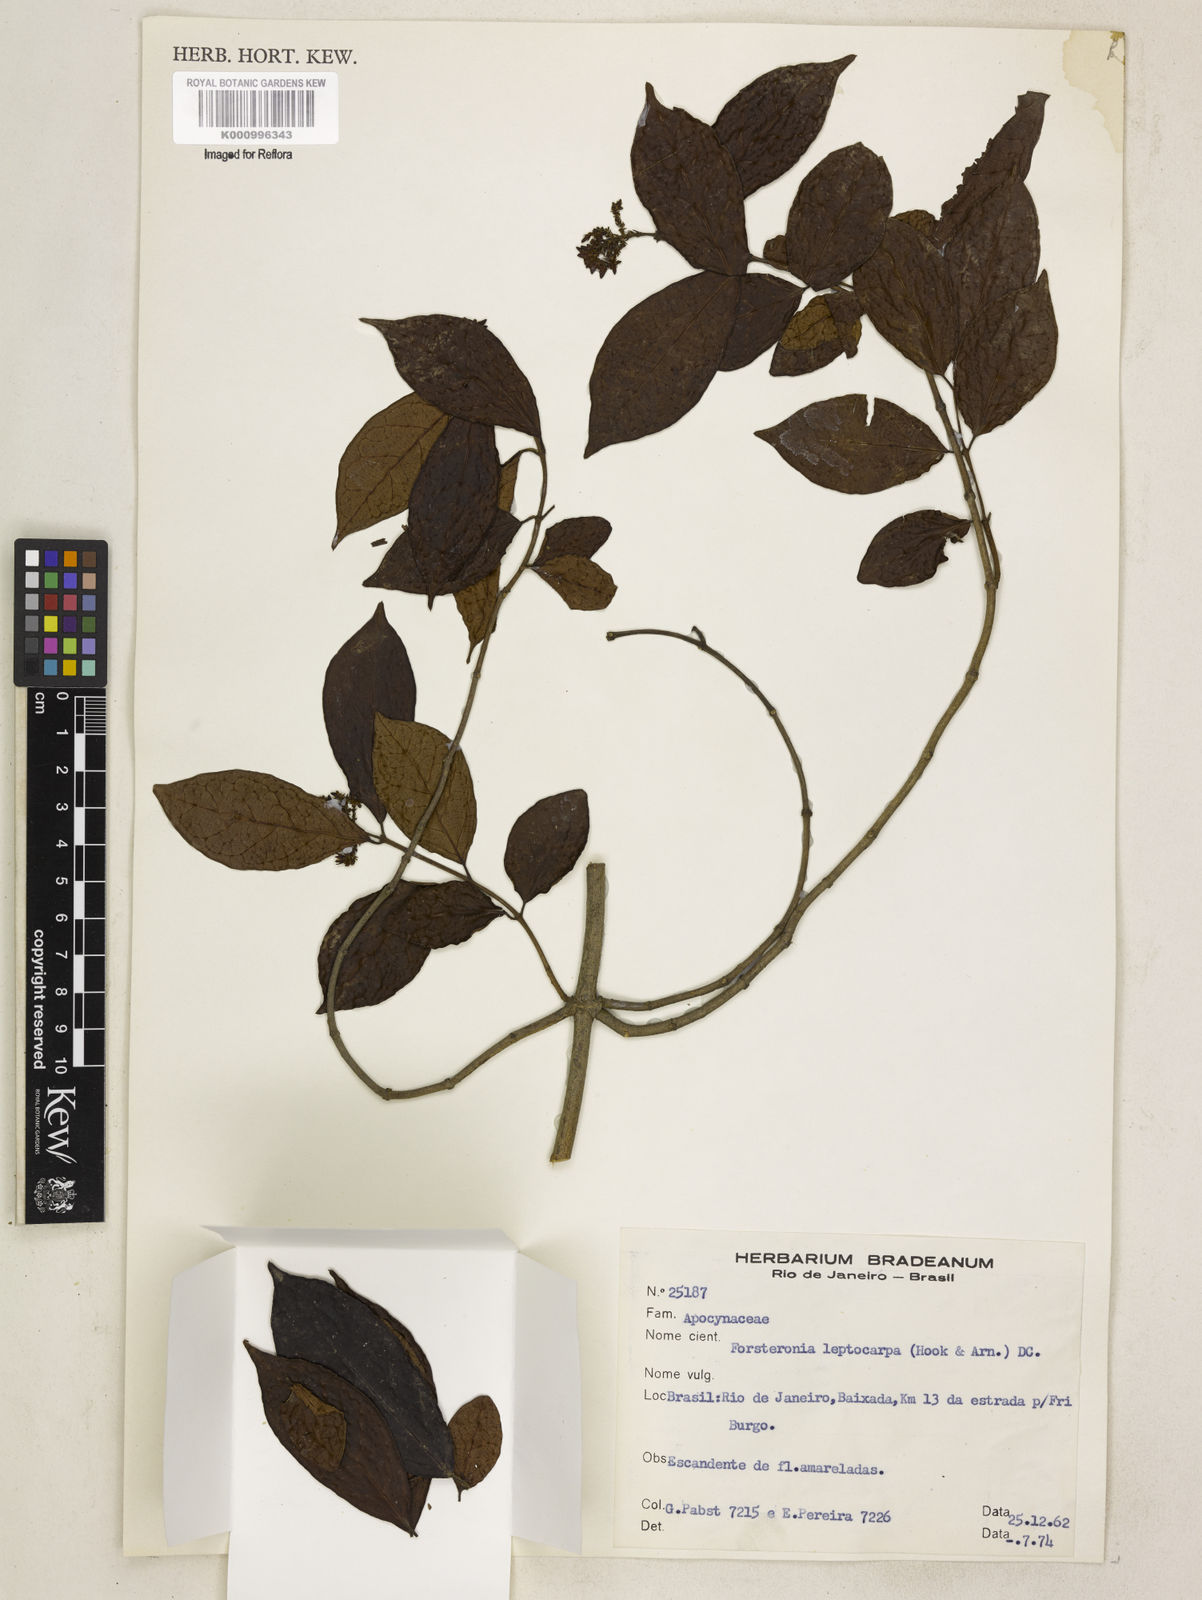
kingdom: Plantae
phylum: Tracheophyta
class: Magnoliopsida
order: Gentianales
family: Apocynaceae
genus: Forsteronia
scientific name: Forsteronia leptocarpa
